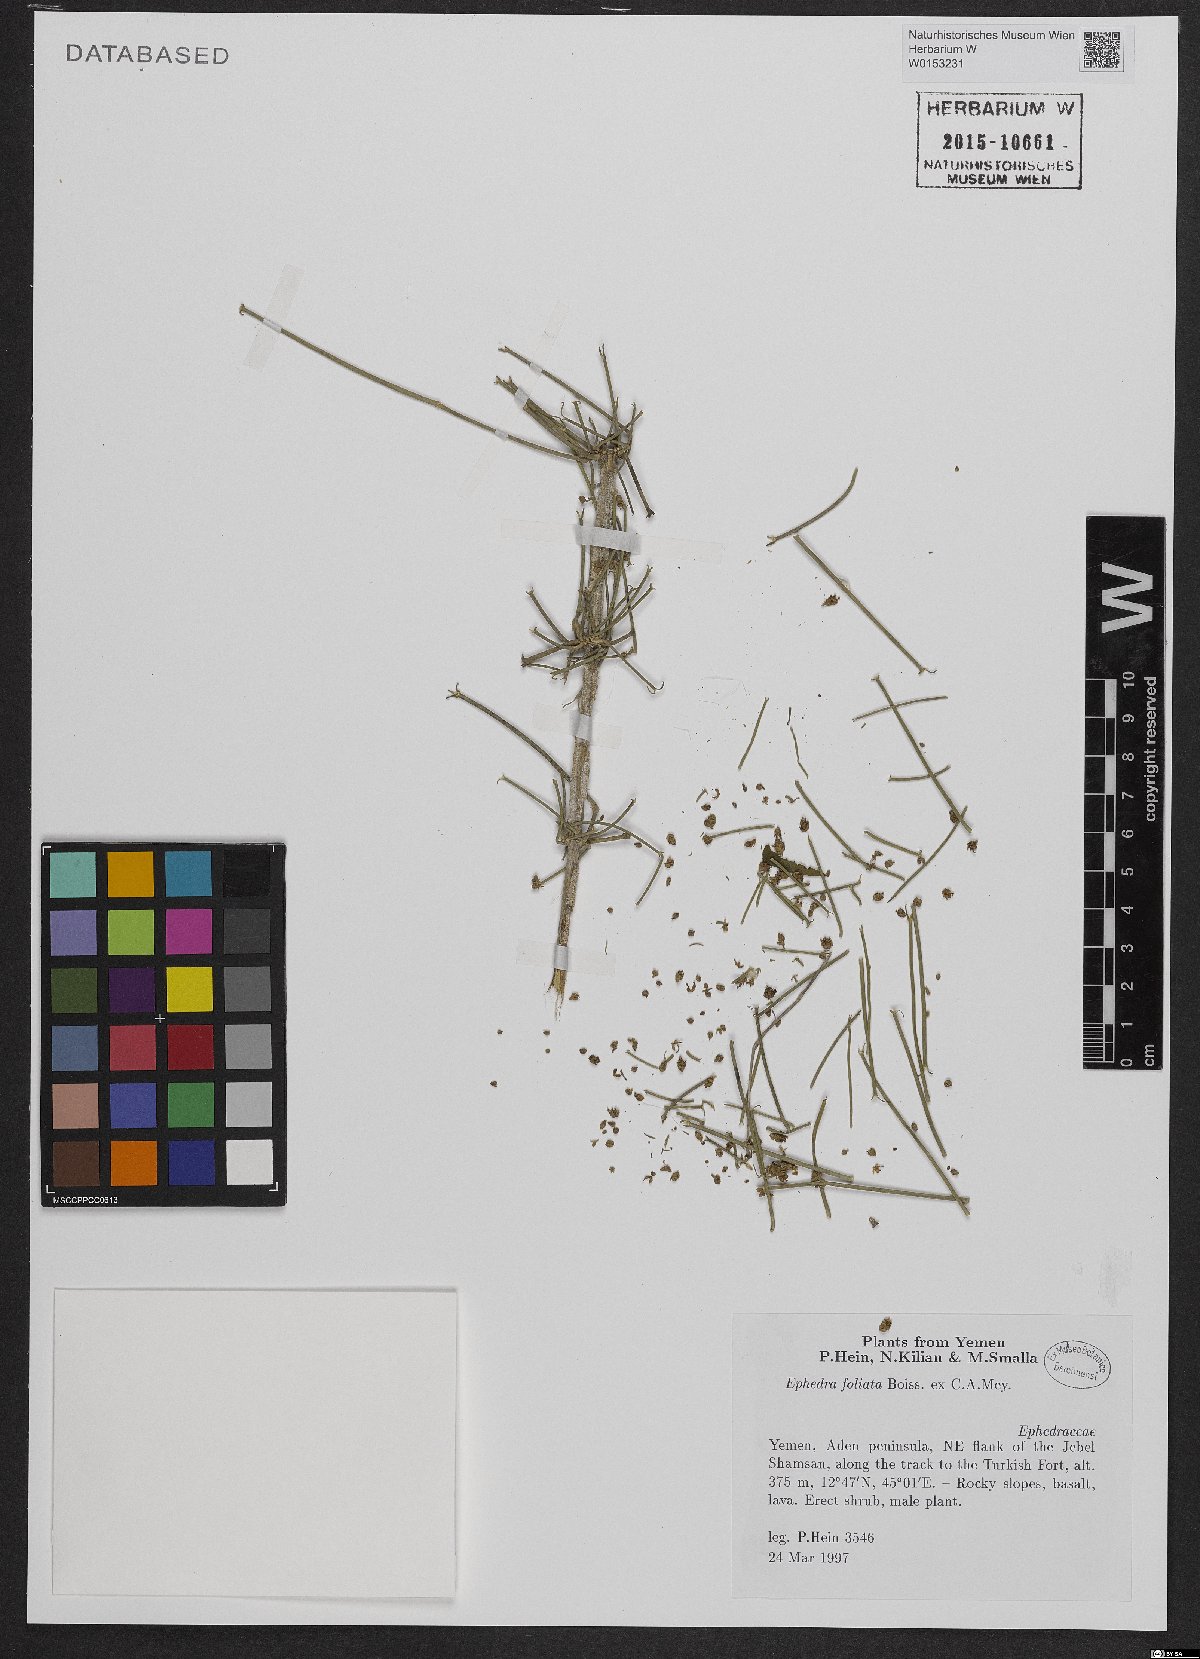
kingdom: Plantae
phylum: Tracheophyta
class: Gnetopsida
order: Ephedrales
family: Ephedraceae
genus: Ephedra
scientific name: Ephedra ciliata
